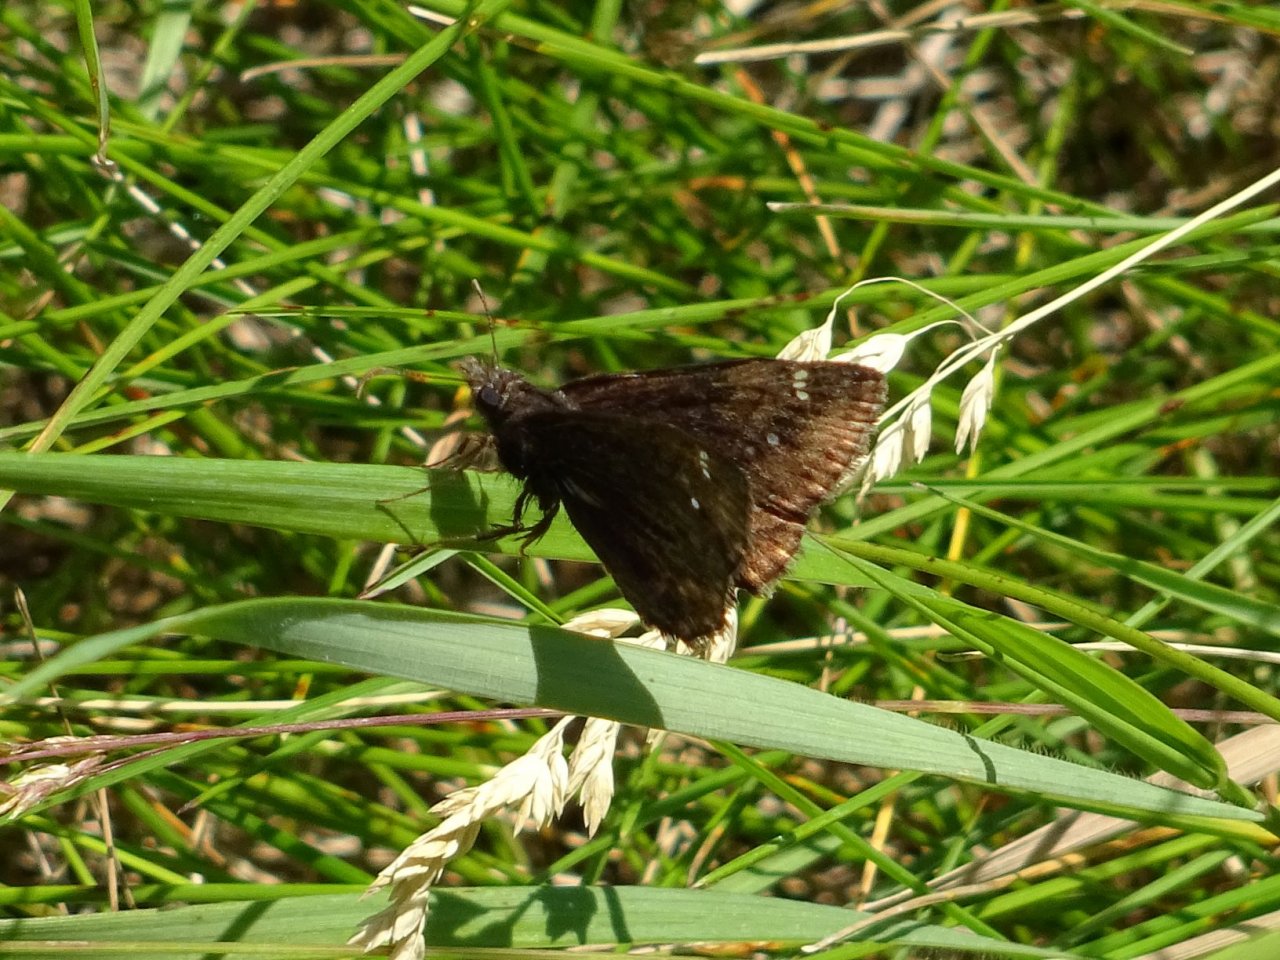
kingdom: Animalia
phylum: Arthropoda
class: Insecta
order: Lepidoptera
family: Hesperiidae
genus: Gesta
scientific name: Gesta
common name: Wild Indigo Duskywing
